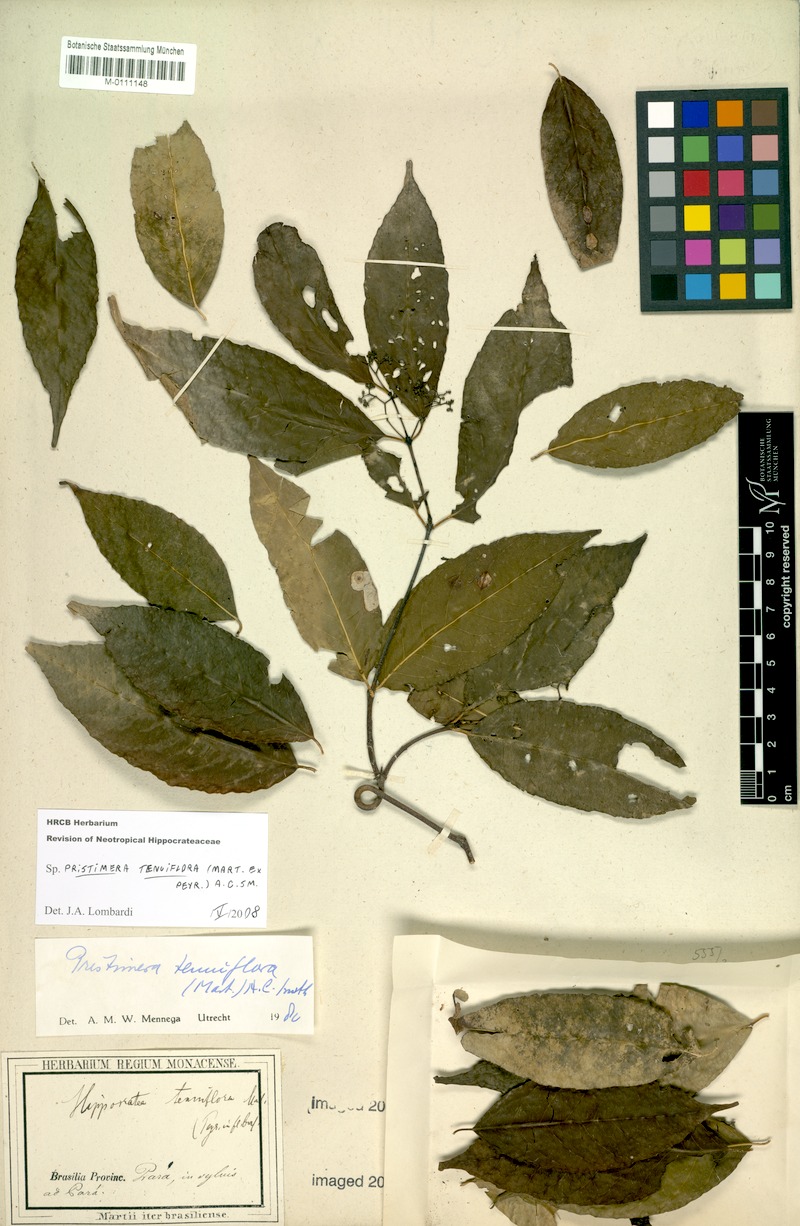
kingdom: Plantae
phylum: Tracheophyta
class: Magnoliopsida
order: Celastrales
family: Celastraceae
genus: Pristimera
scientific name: Pristimera tenuiflora
